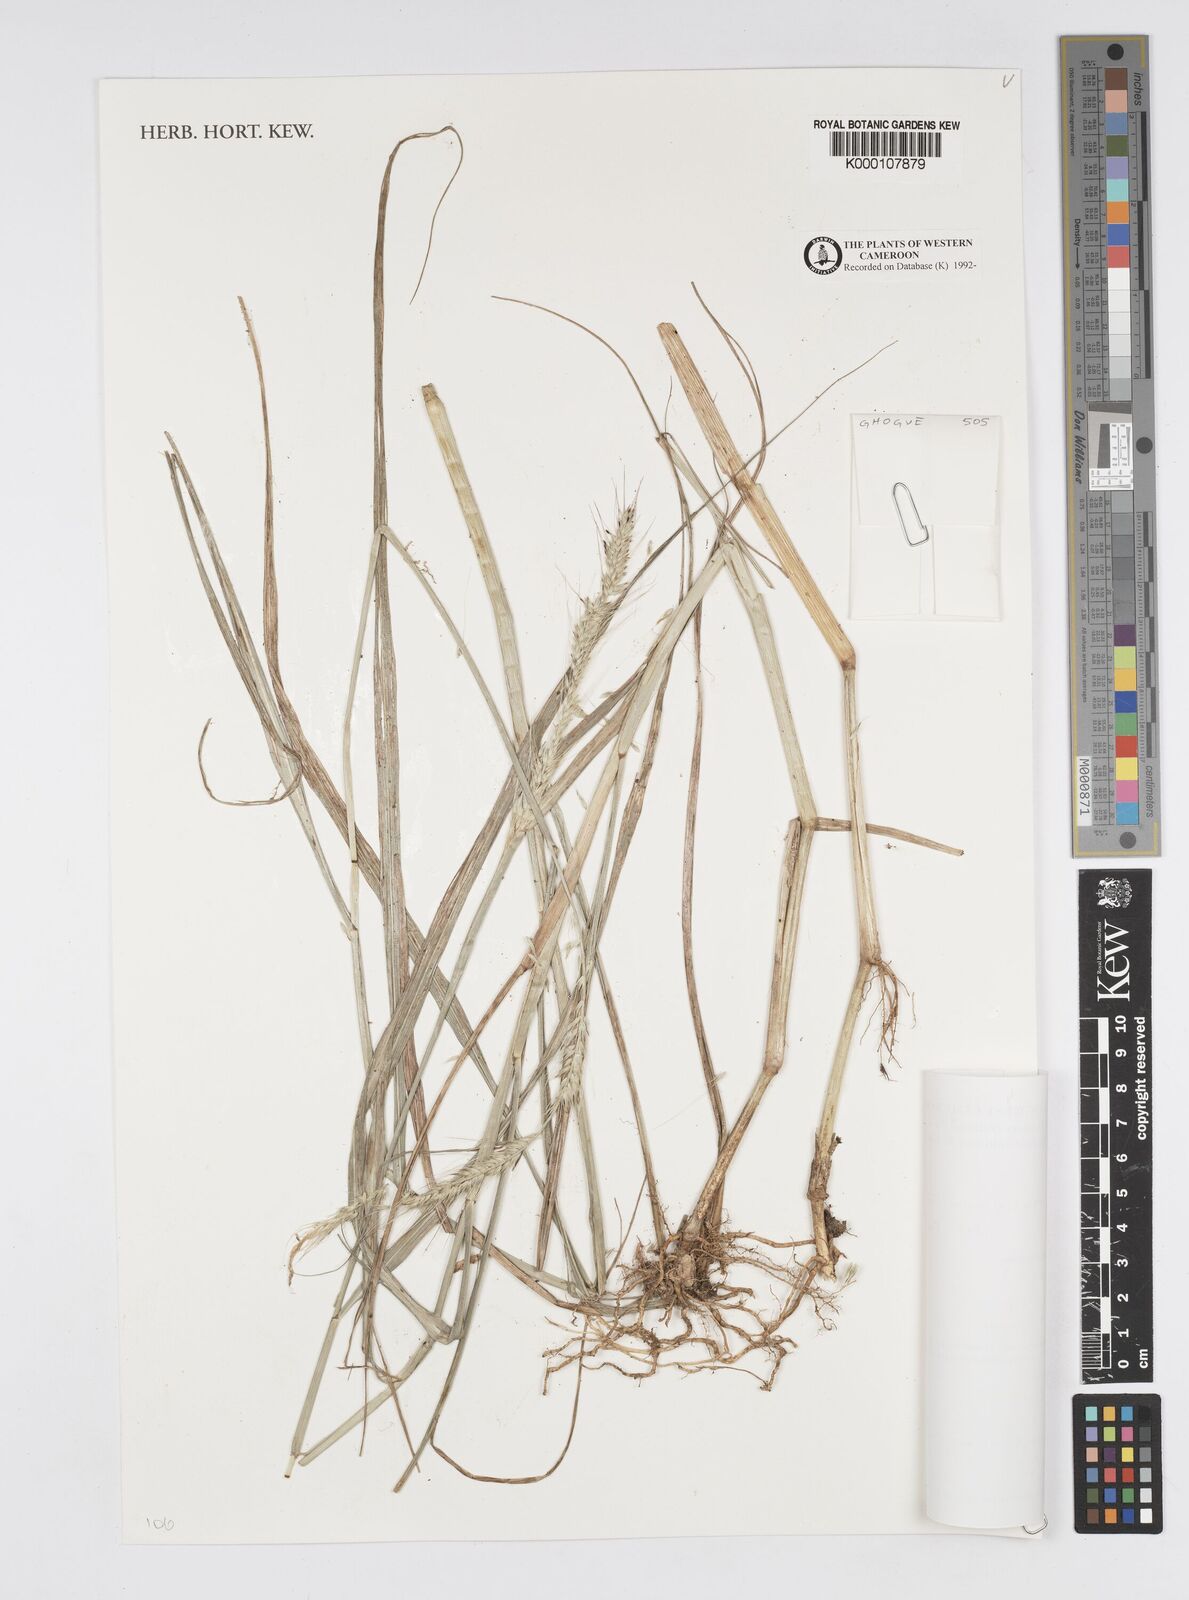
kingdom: Plantae
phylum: Tracheophyta
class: Liliopsida
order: Poales
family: Poaceae
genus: Cenchrus
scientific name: Cenchrus caudatus
